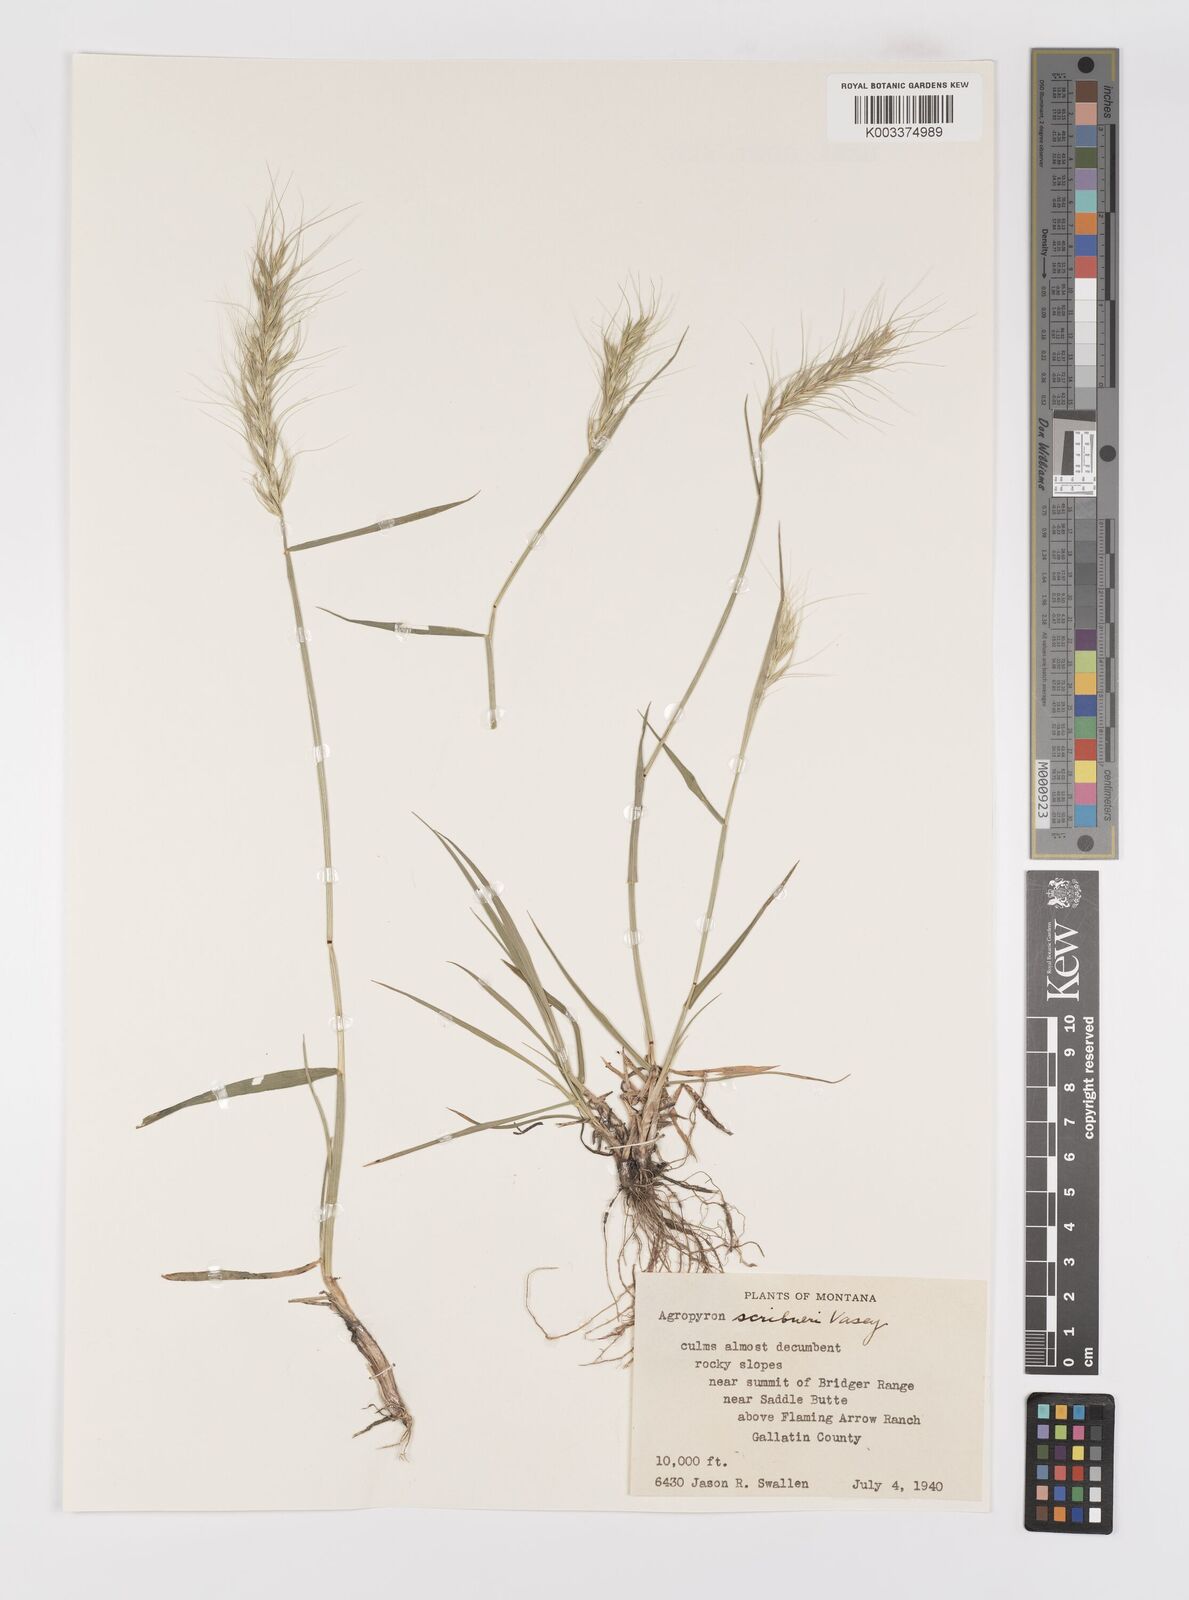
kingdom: Plantae
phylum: Tracheophyta
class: Liliopsida
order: Poales
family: Poaceae
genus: Elymus
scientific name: Elymus scribneri
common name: Scribner's wheatgrass
